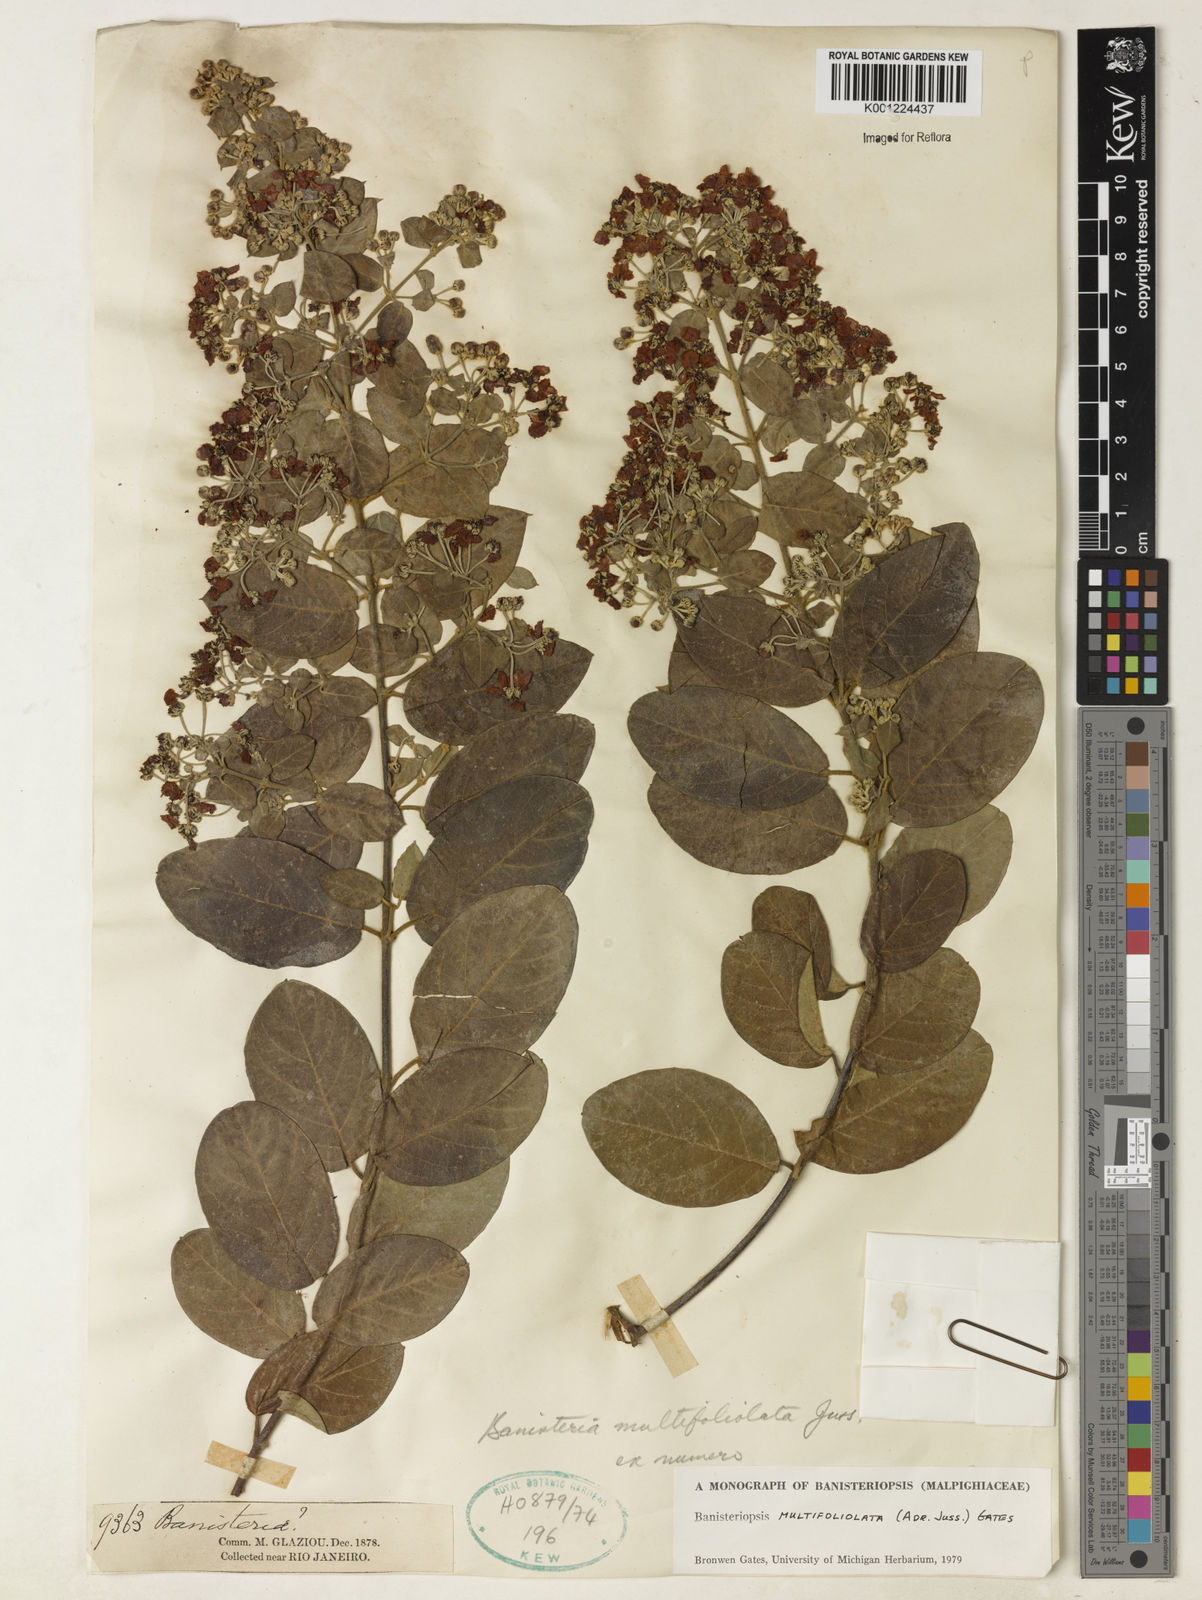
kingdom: Plantae
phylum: Tracheophyta
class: Magnoliopsida
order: Malpighiales
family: Malpighiaceae
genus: Banisteriopsis
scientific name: Banisteriopsis multifoliolata
